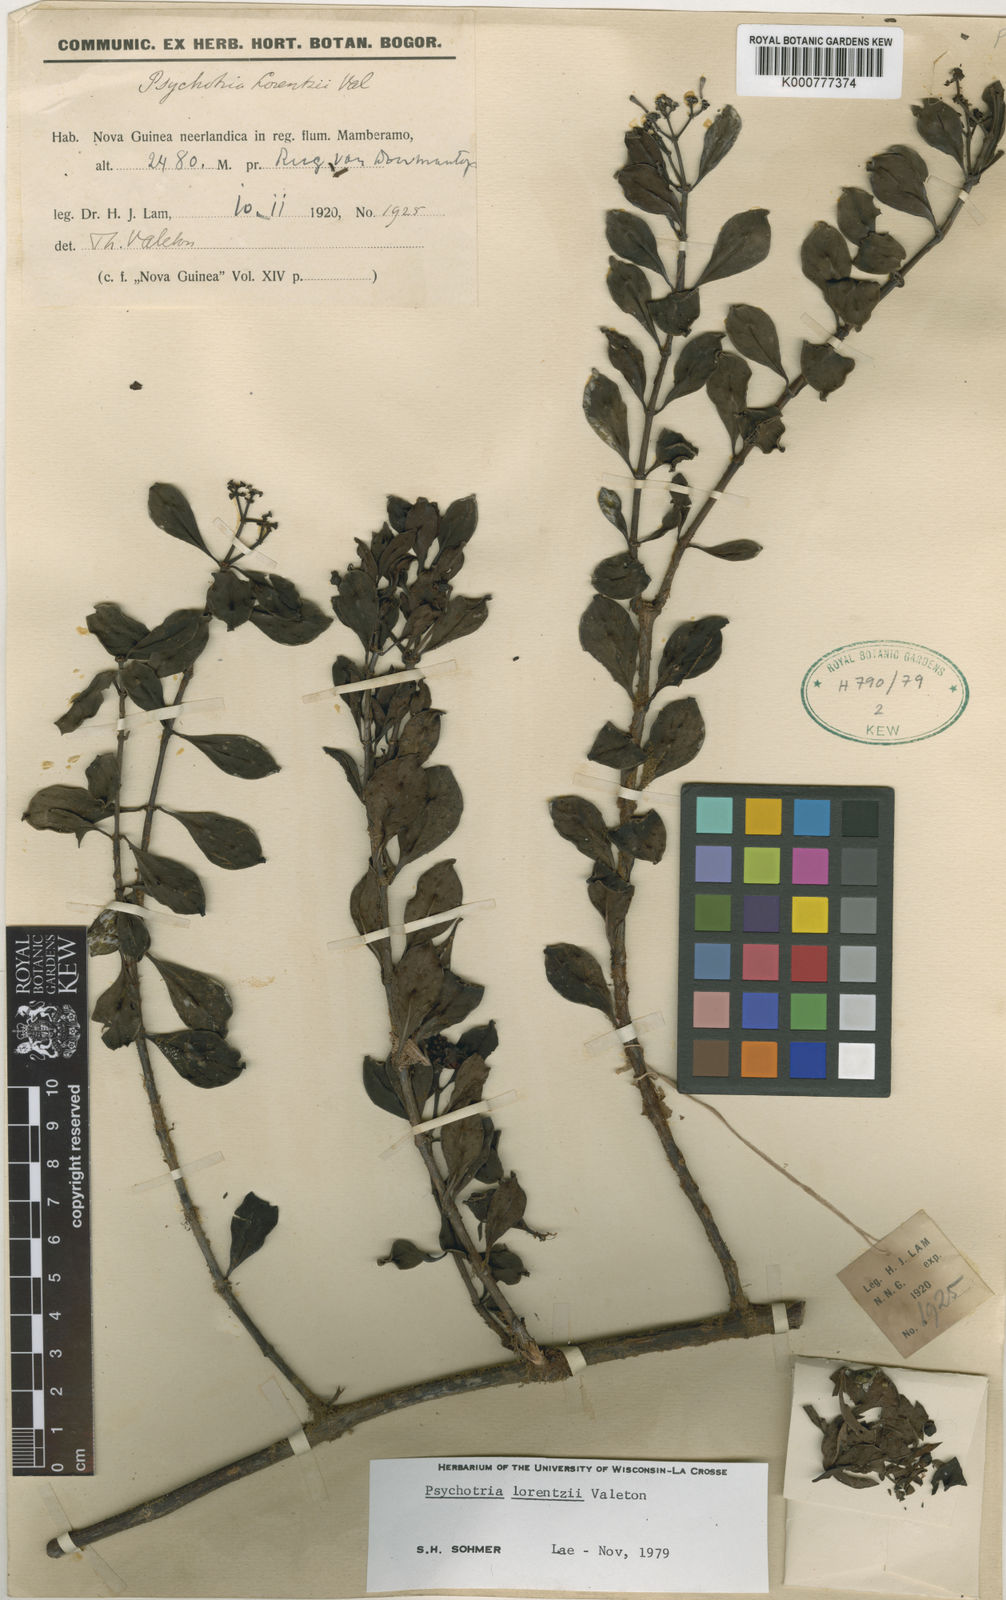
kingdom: Plantae
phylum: Tracheophyta
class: Magnoliopsida
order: Gentianales
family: Rubiaceae
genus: Psychotria
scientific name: Psychotria lorentzii
